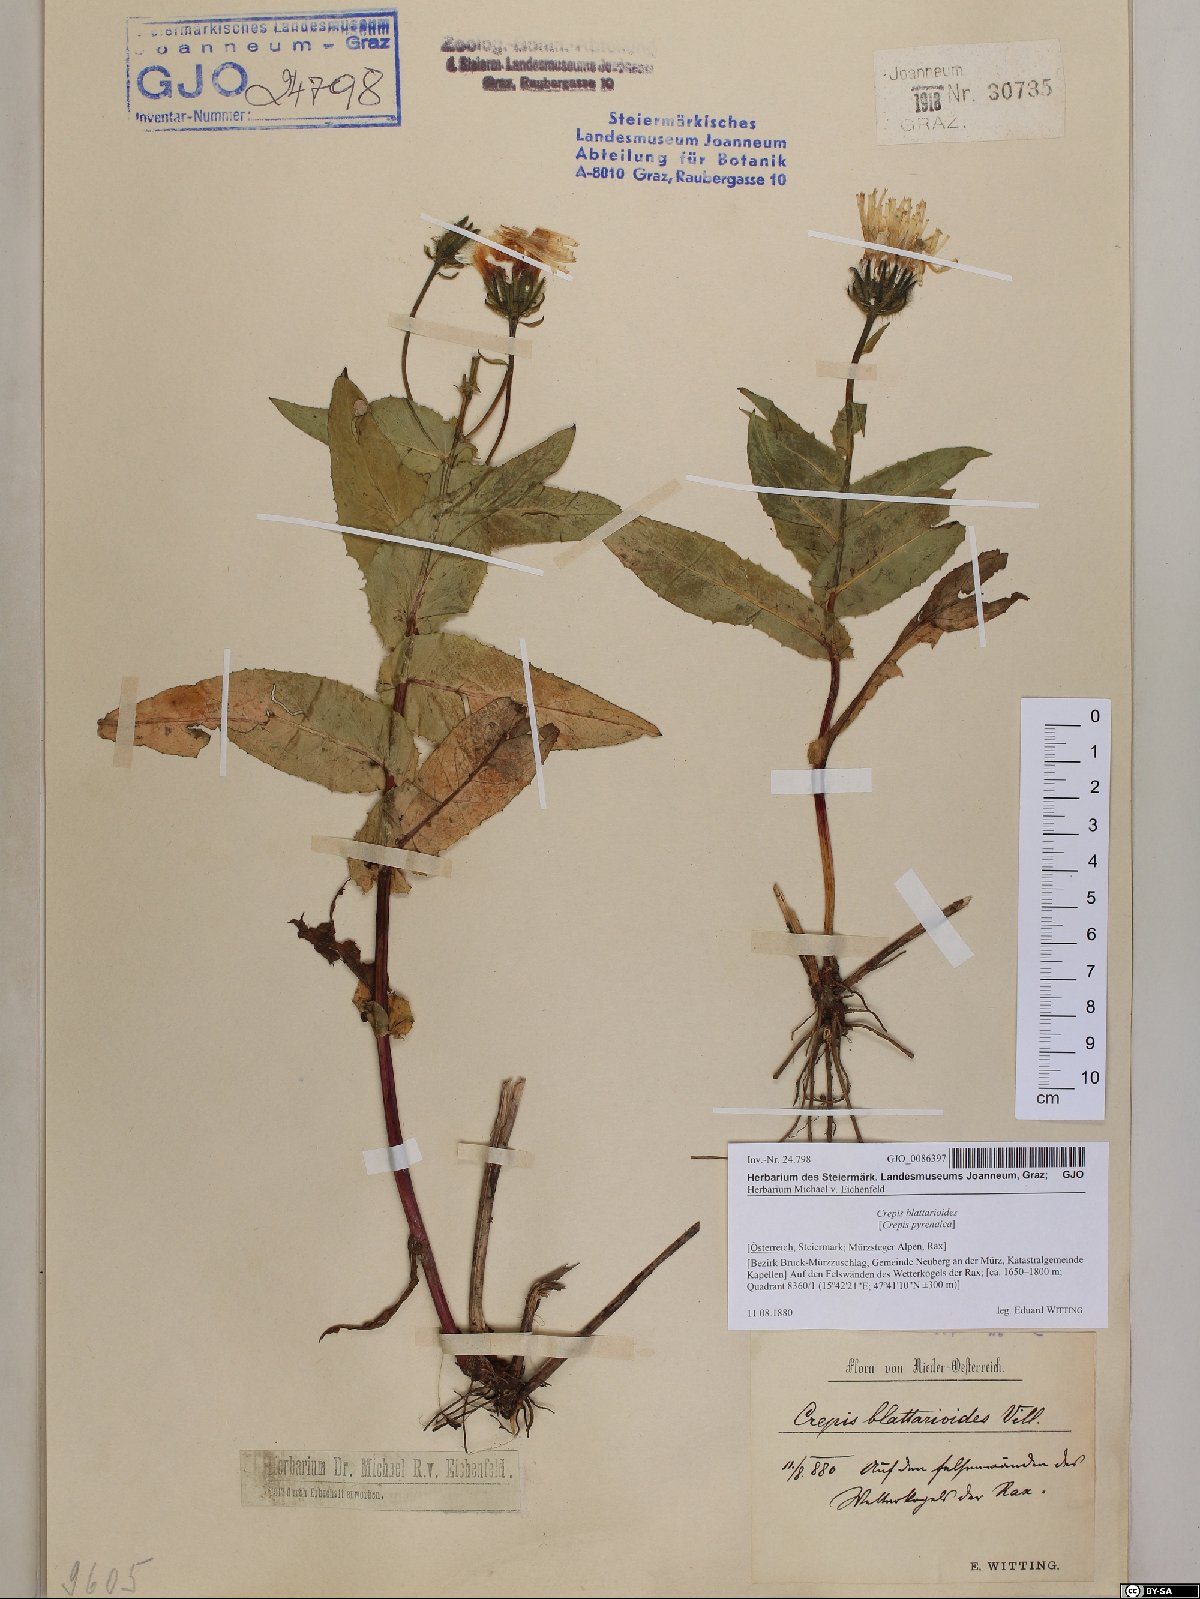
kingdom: Plantae
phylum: Tracheophyta
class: Magnoliopsida
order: Asterales
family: Asteraceae
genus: Crepis
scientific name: Crepis blattarioides
